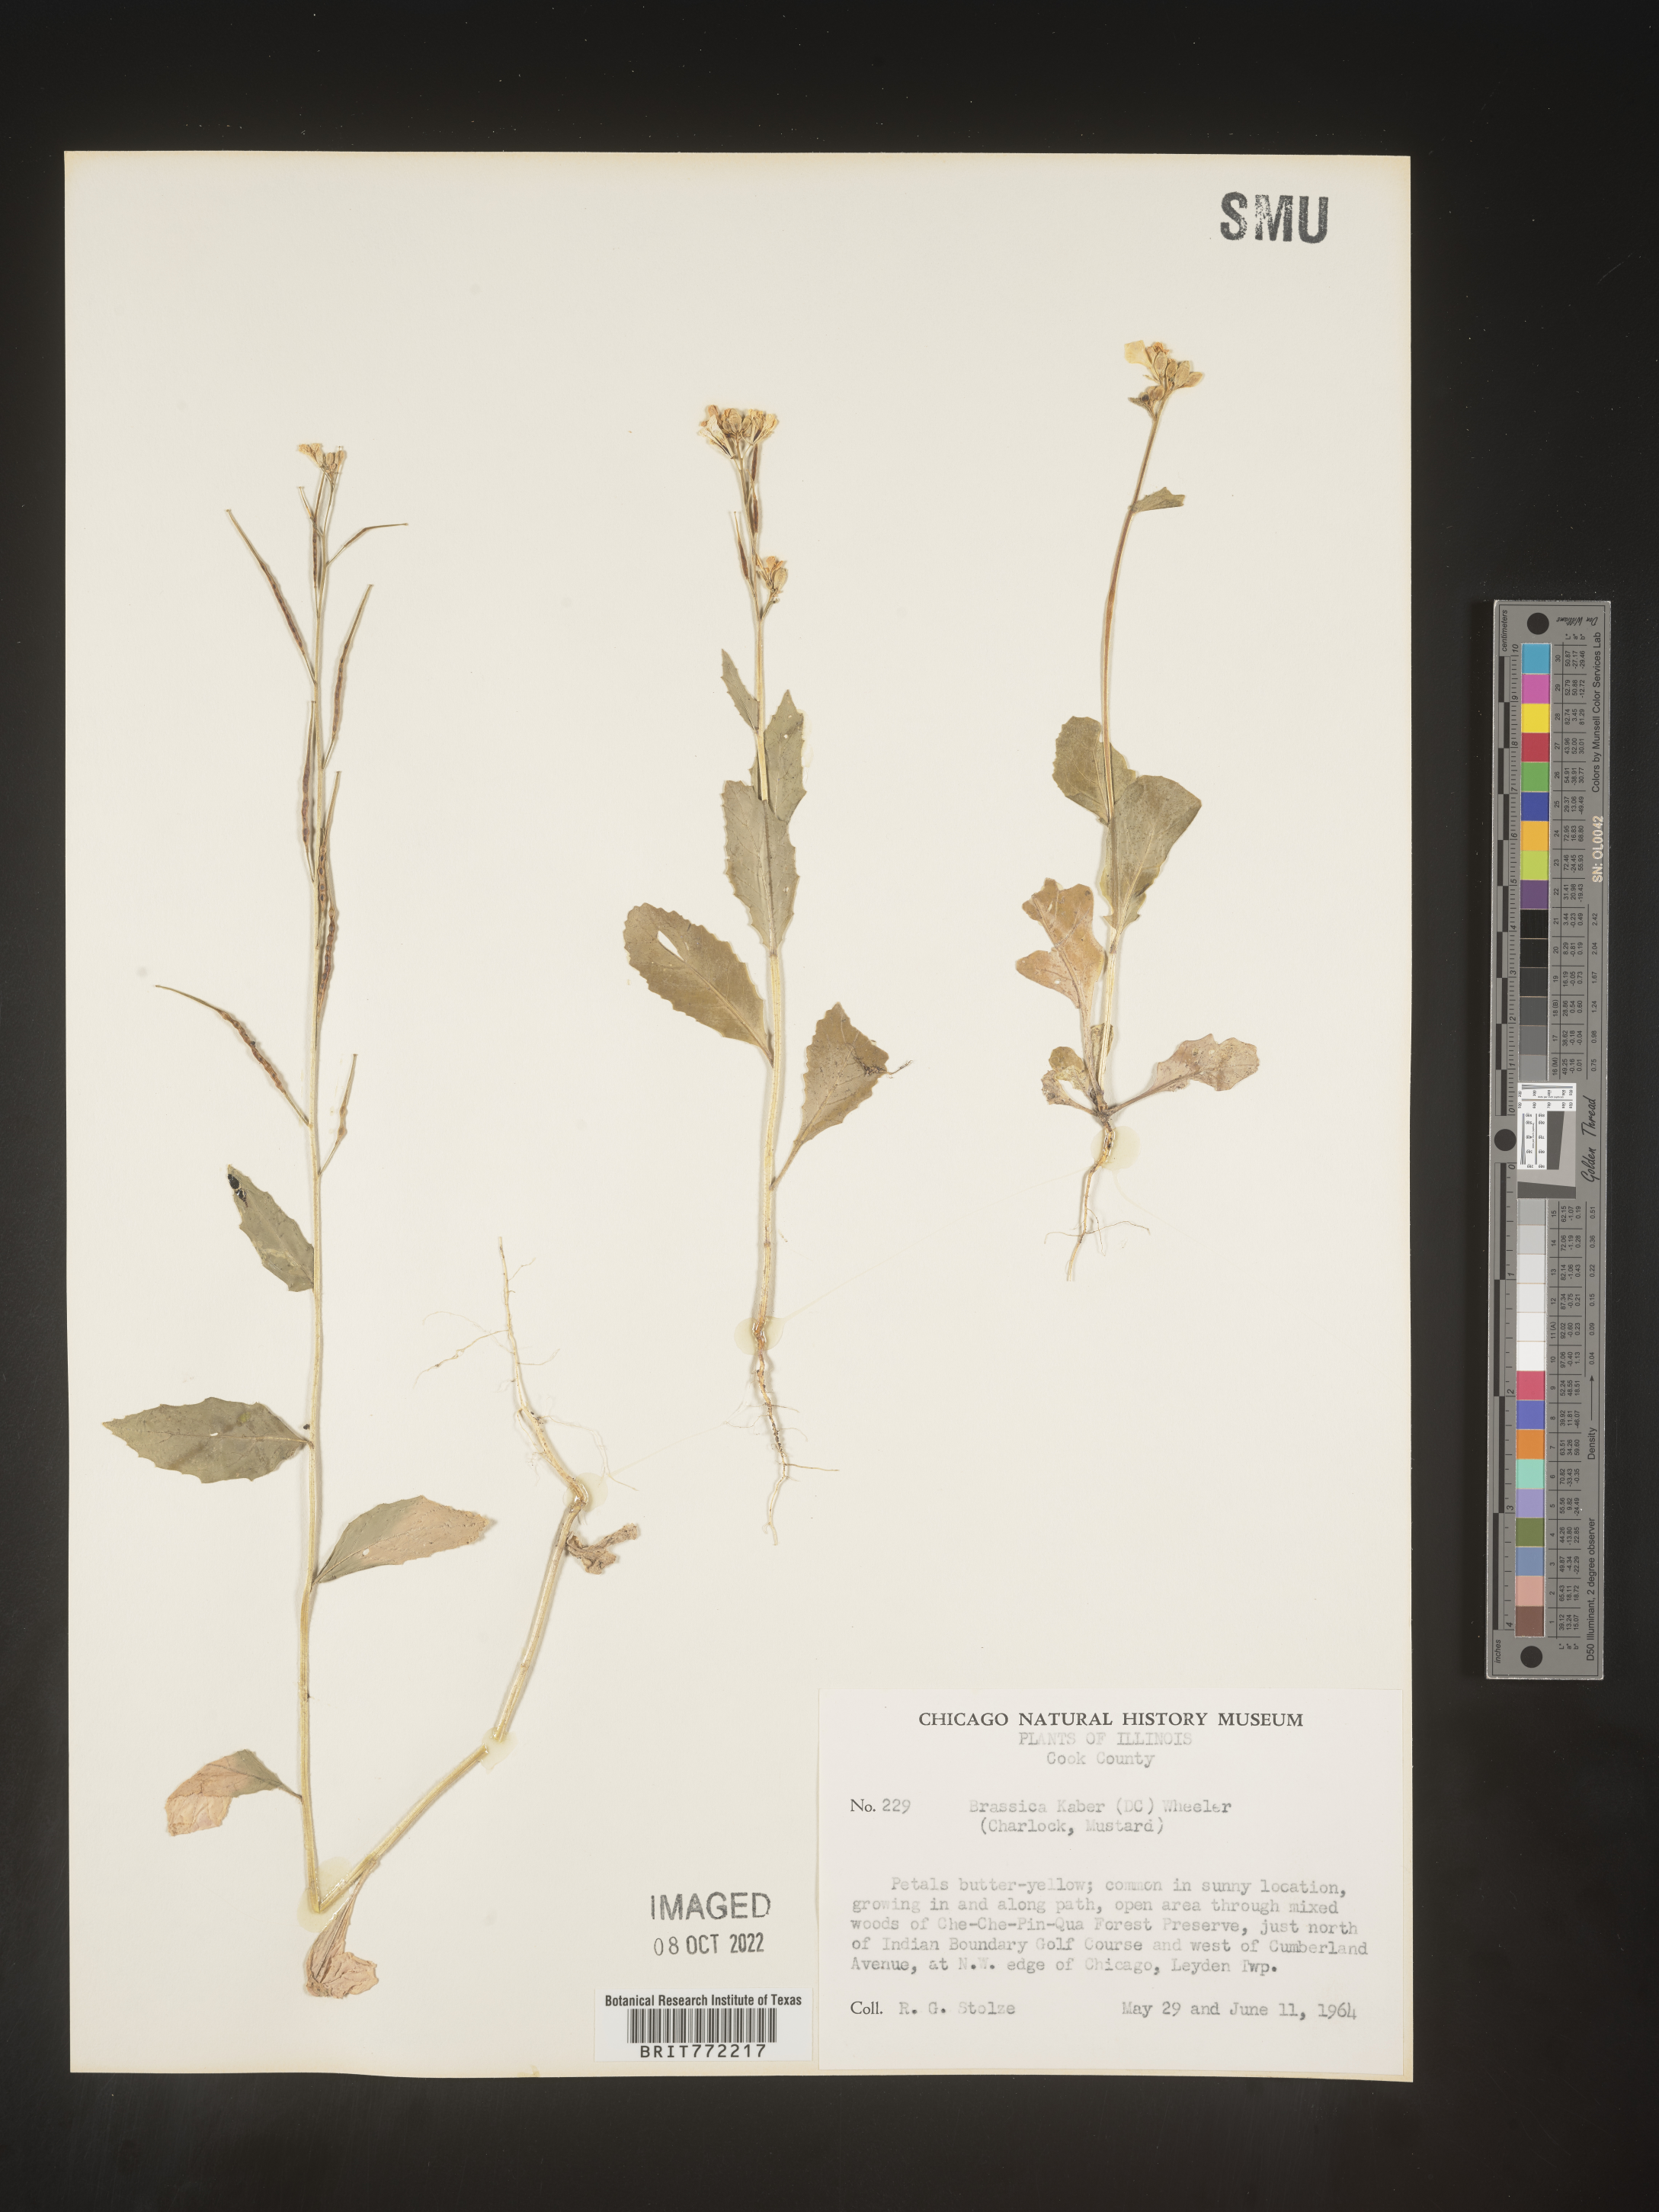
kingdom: Plantae
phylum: Tracheophyta
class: Magnoliopsida
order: Brassicales
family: Brassicaceae
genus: Sinapis
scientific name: Sinapis arvensis
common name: Charlock
